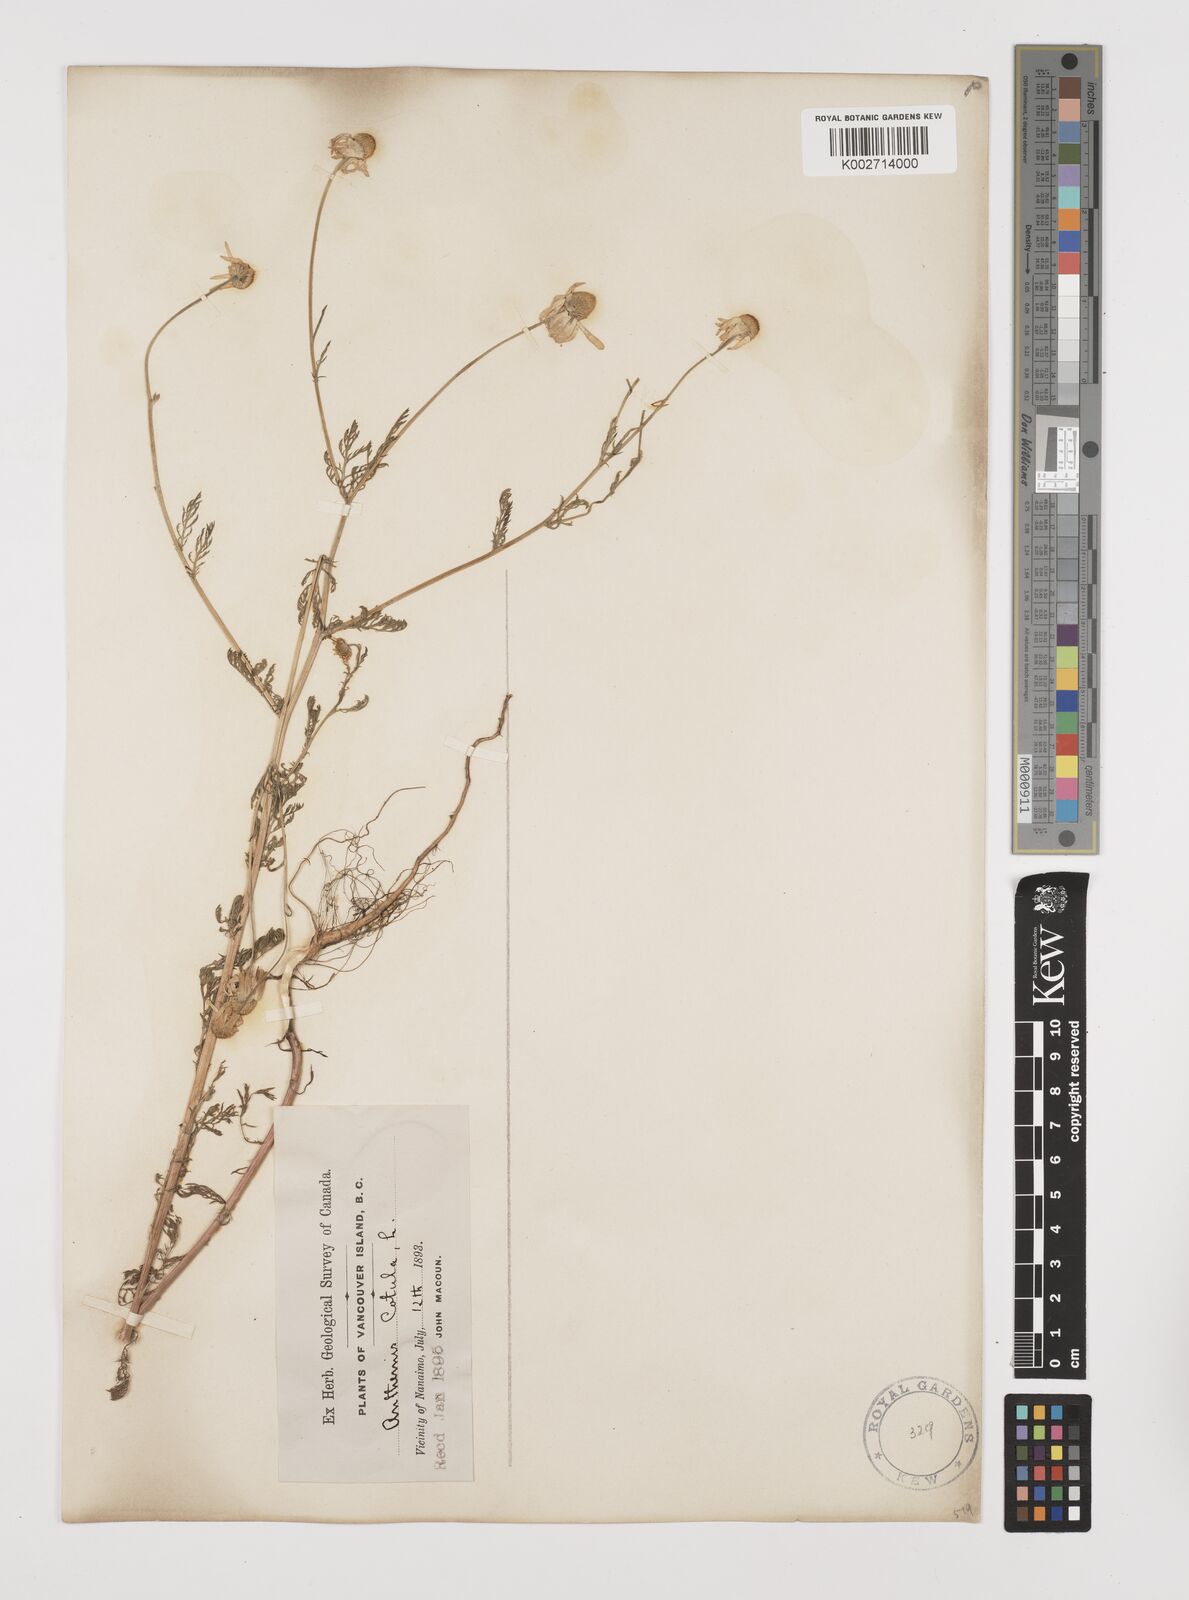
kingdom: Plantae
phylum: Tracheophyta
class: Magnoliopsida
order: Asterales
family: Asteraceae
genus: Anthemis
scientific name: Anthemis cotula
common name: Stinking chamomile
